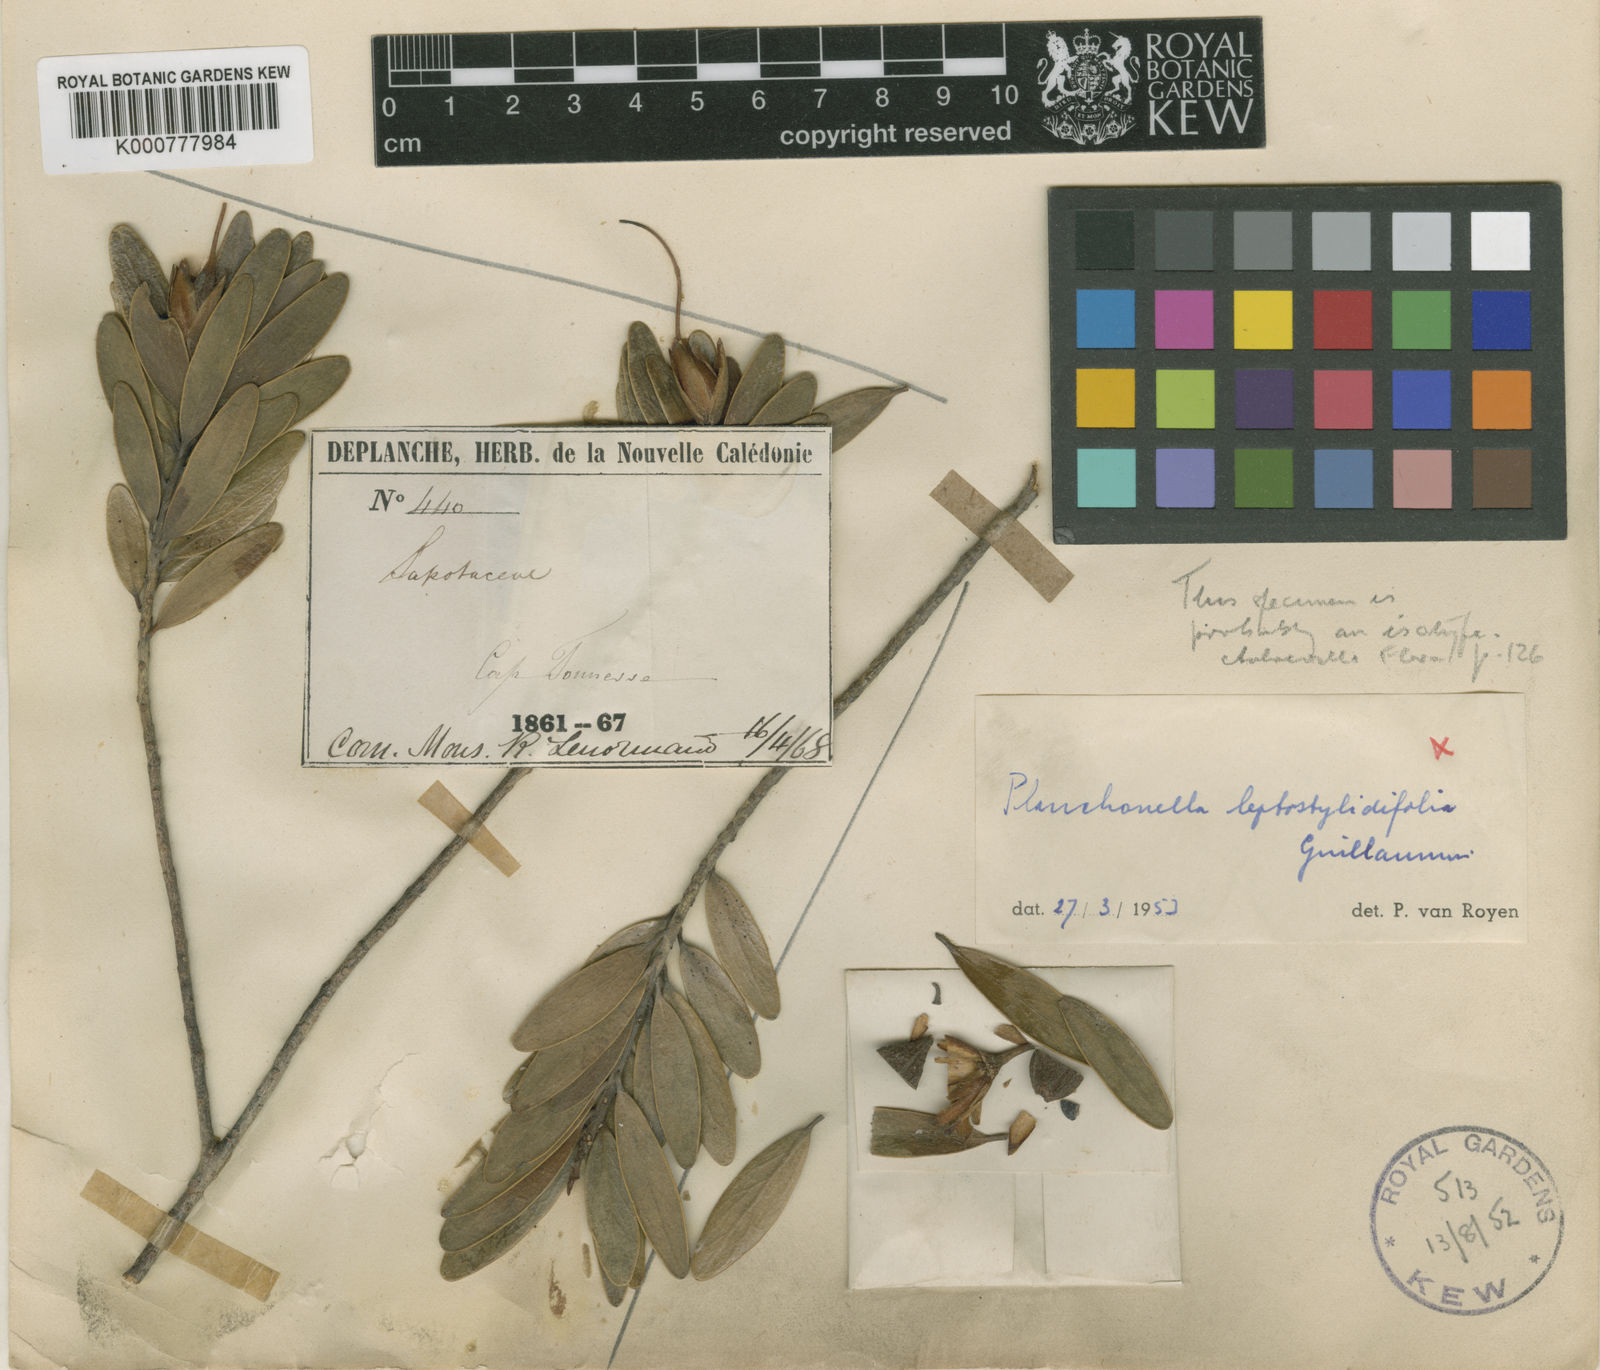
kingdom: Plantae
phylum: Tracheophyta
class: Magnoliopsida
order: Ericales
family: Sapotaceae
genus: Breviea
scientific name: Breviea sericea
